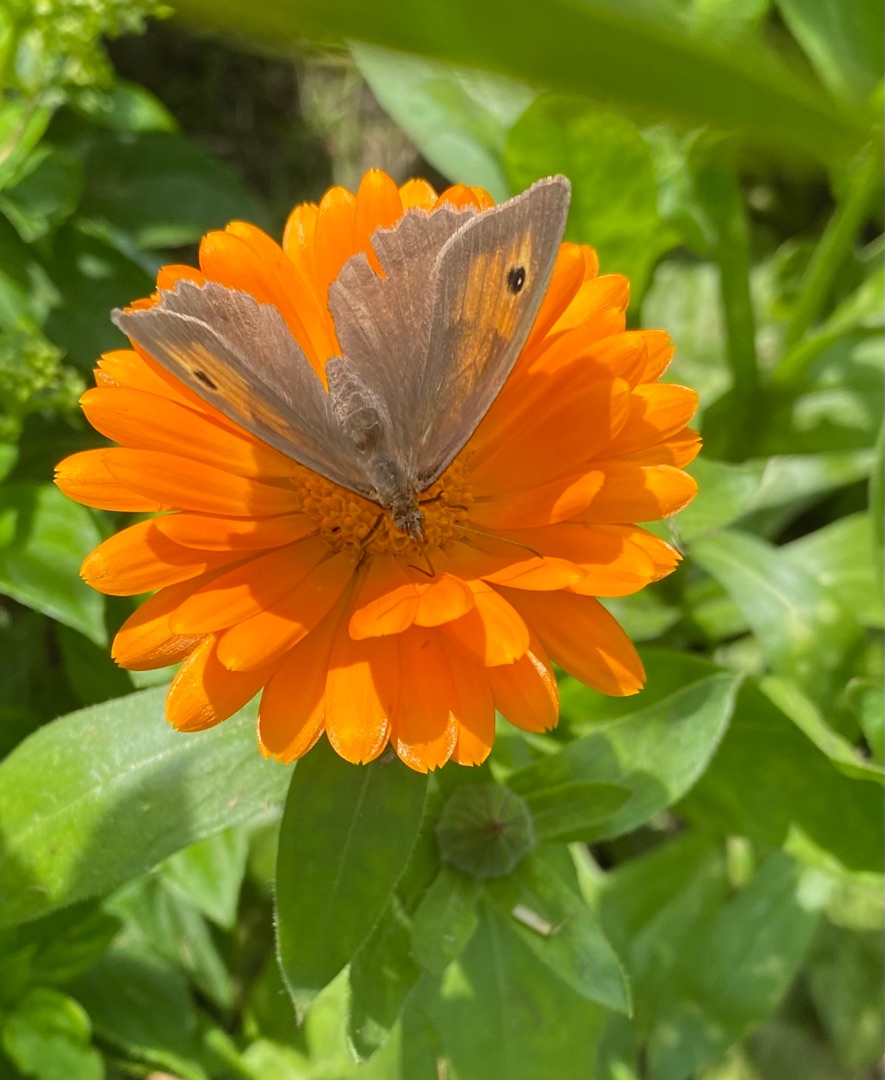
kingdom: Animalia
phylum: Arthropoda
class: Insecta
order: Lepidoptera
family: Nymphalidae
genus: Maniola
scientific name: Maniola jurtina
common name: Græsrandøje
